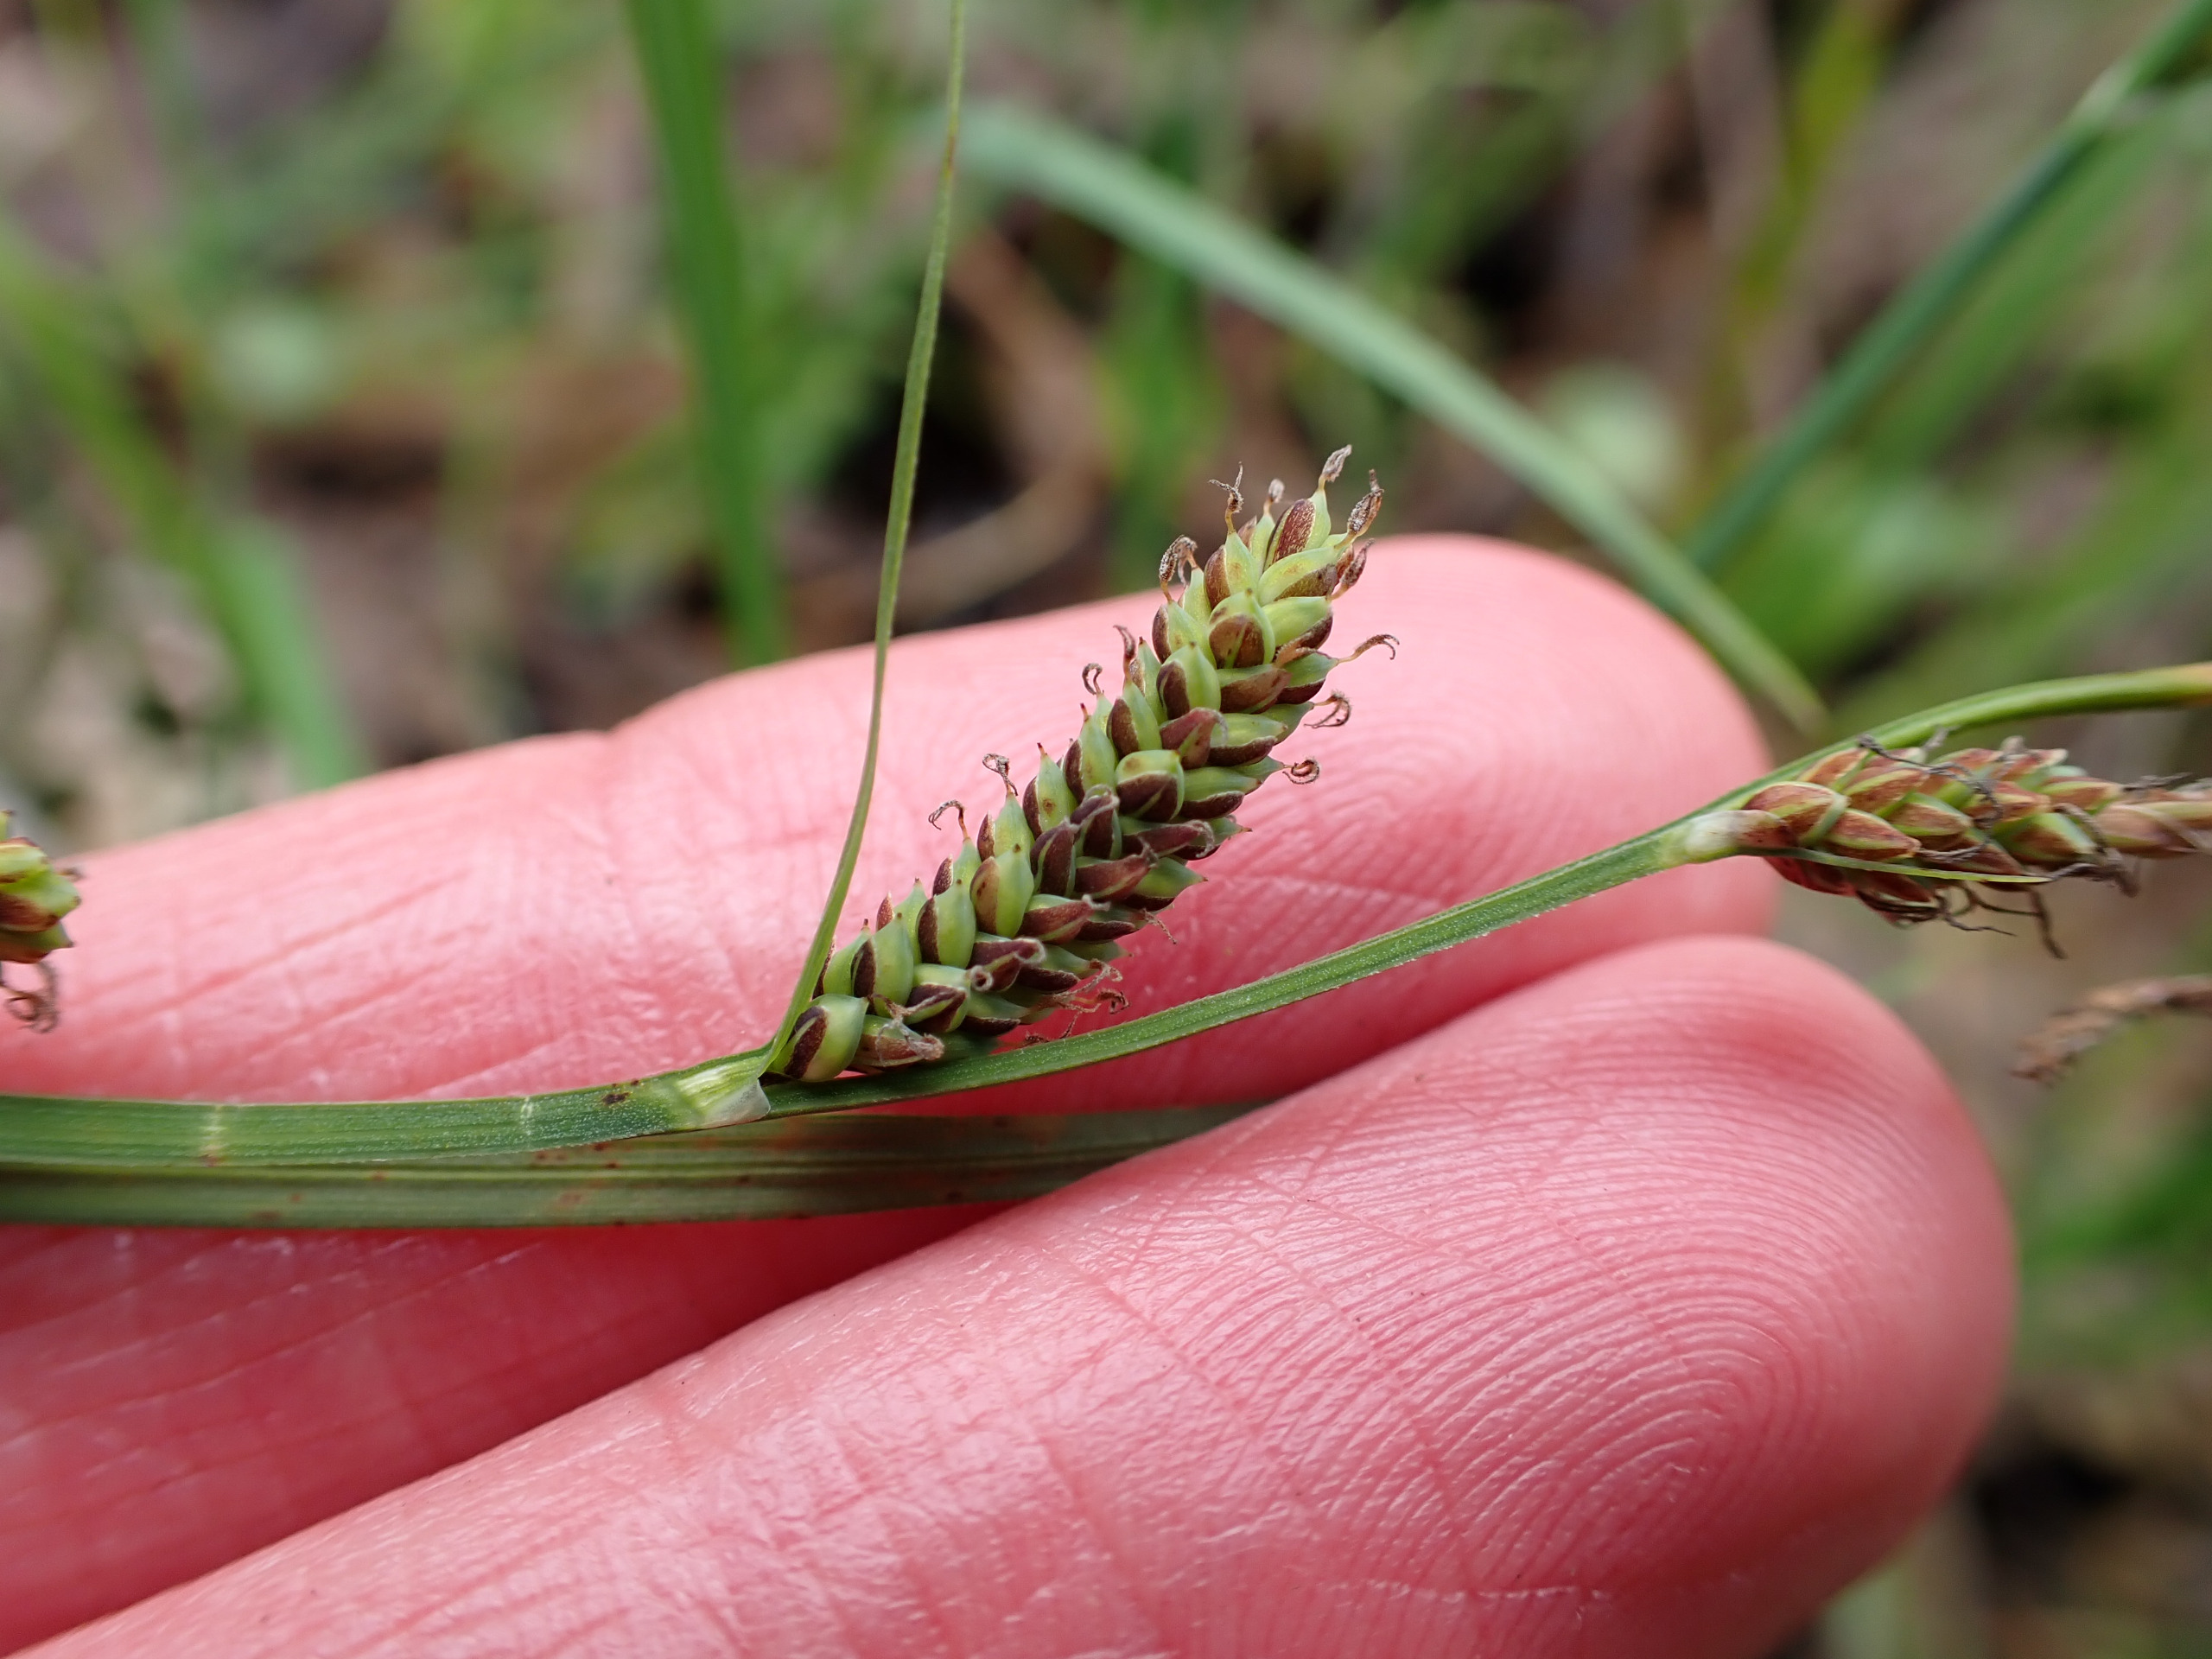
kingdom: Plantae
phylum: Tracheophyta
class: Liliopsida
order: Poales
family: Cyperaceae
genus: Carex
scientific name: Carex nigra
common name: Almindelig star
